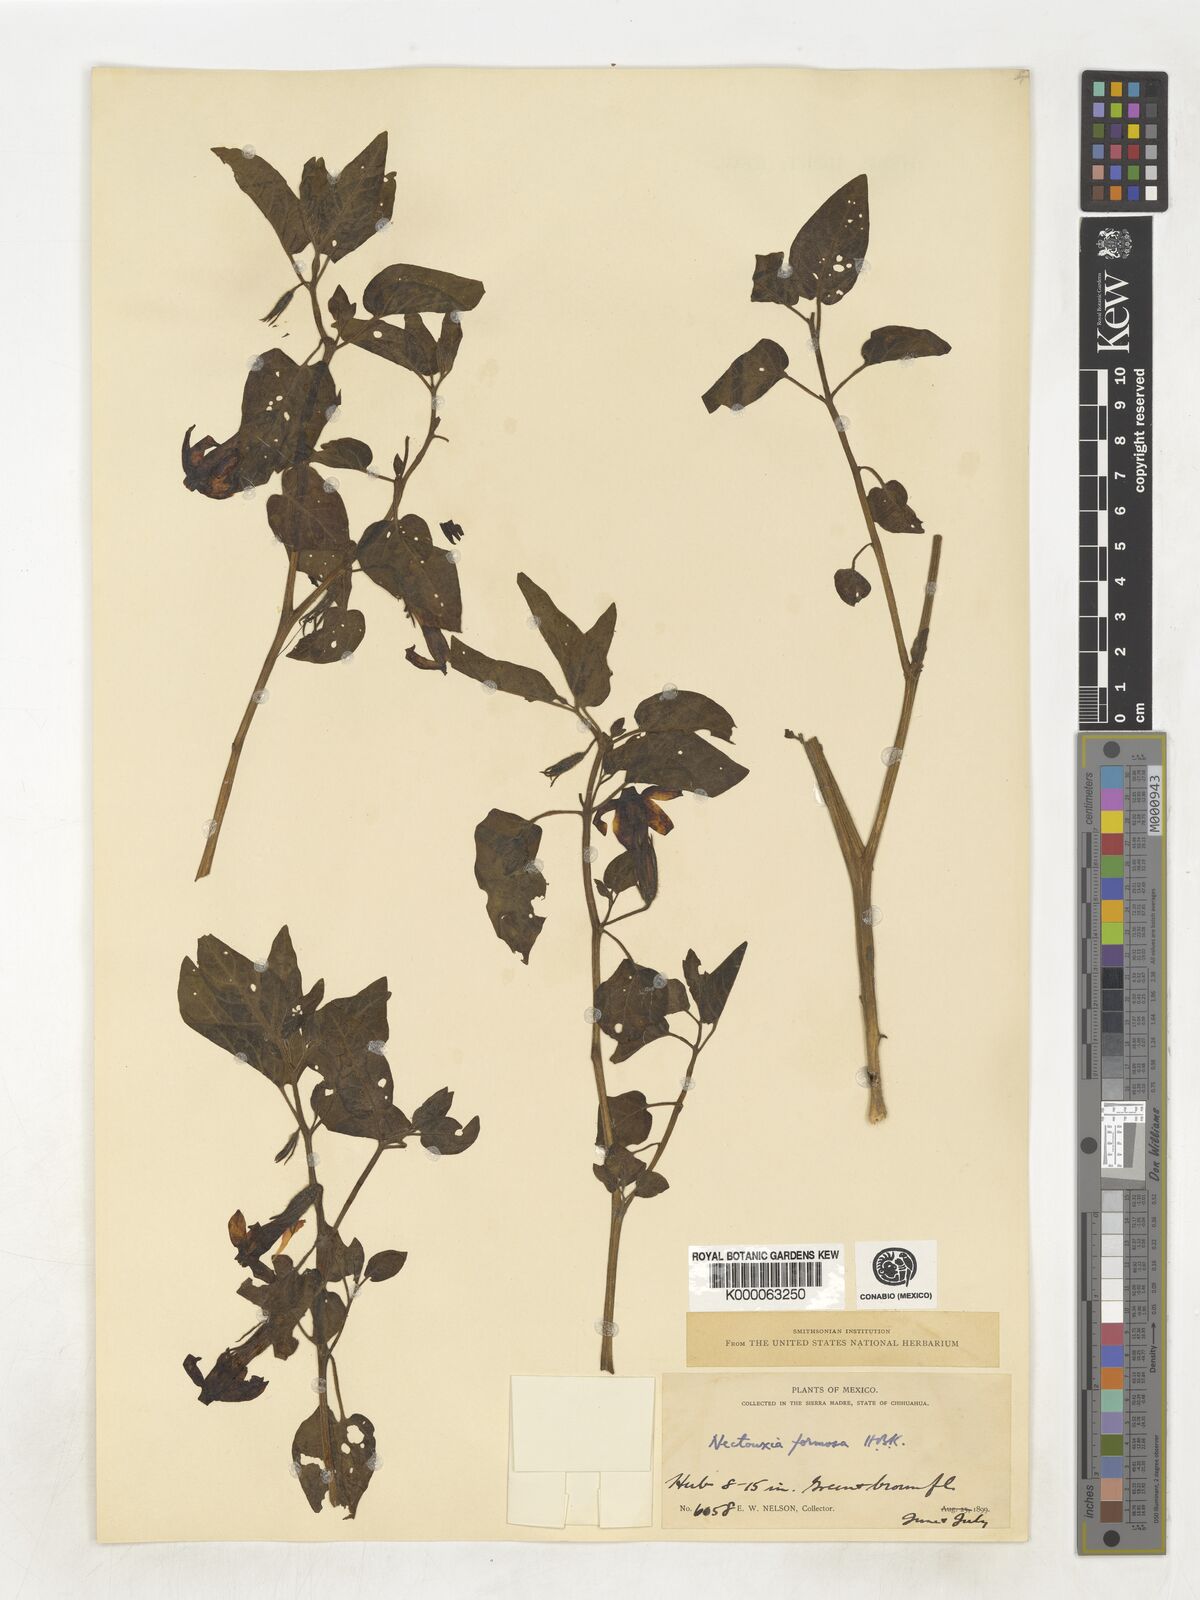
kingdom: Plantae
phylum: Tracheophyta
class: Magnoliopsida
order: Solanales
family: Solanaceae
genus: Nectouxia
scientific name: Nectouxia formosa
